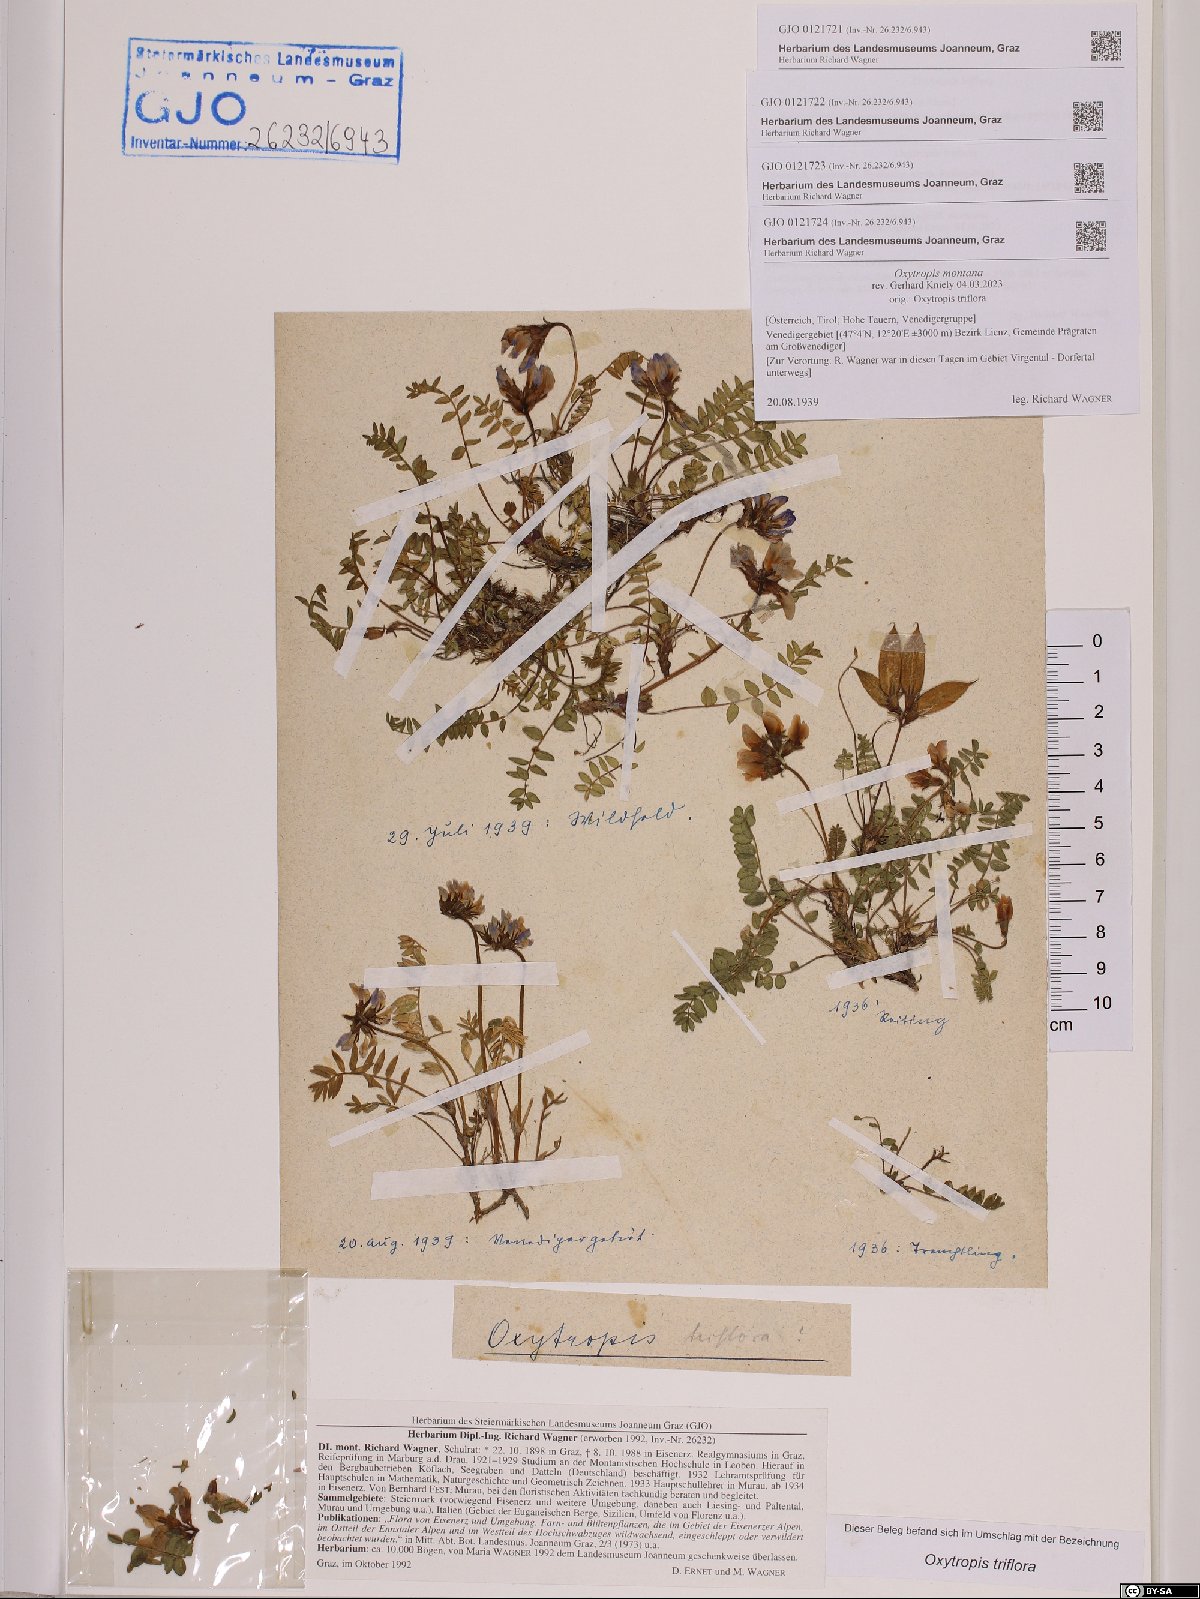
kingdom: Plantae
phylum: Tracheophyta
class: Magnoliopsida
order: Fabales
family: Fabaceae
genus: Oxytropis
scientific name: Oxytropis triflora
